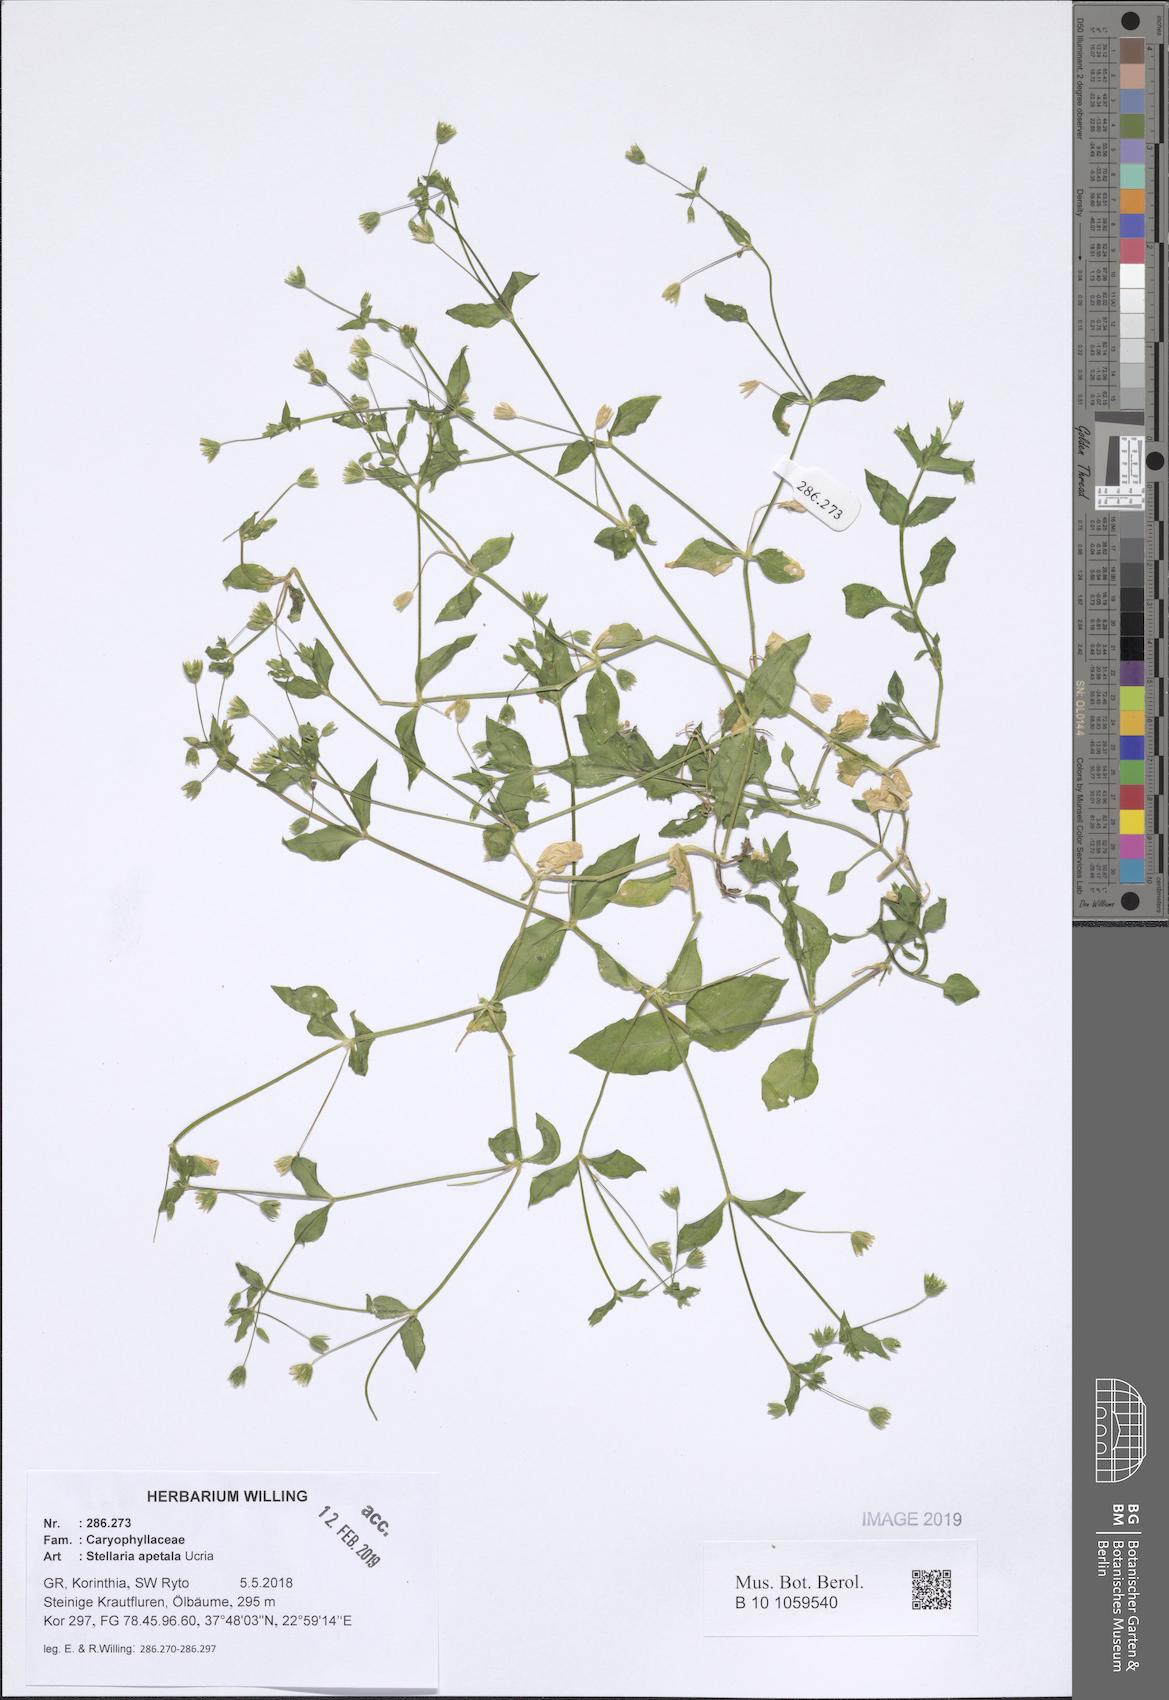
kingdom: Plantae
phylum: Tracheophyta
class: Magnoliopsida
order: Caryophyllales
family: Caryophyllaceae
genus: Stellaria
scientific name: Stellaria apetala
